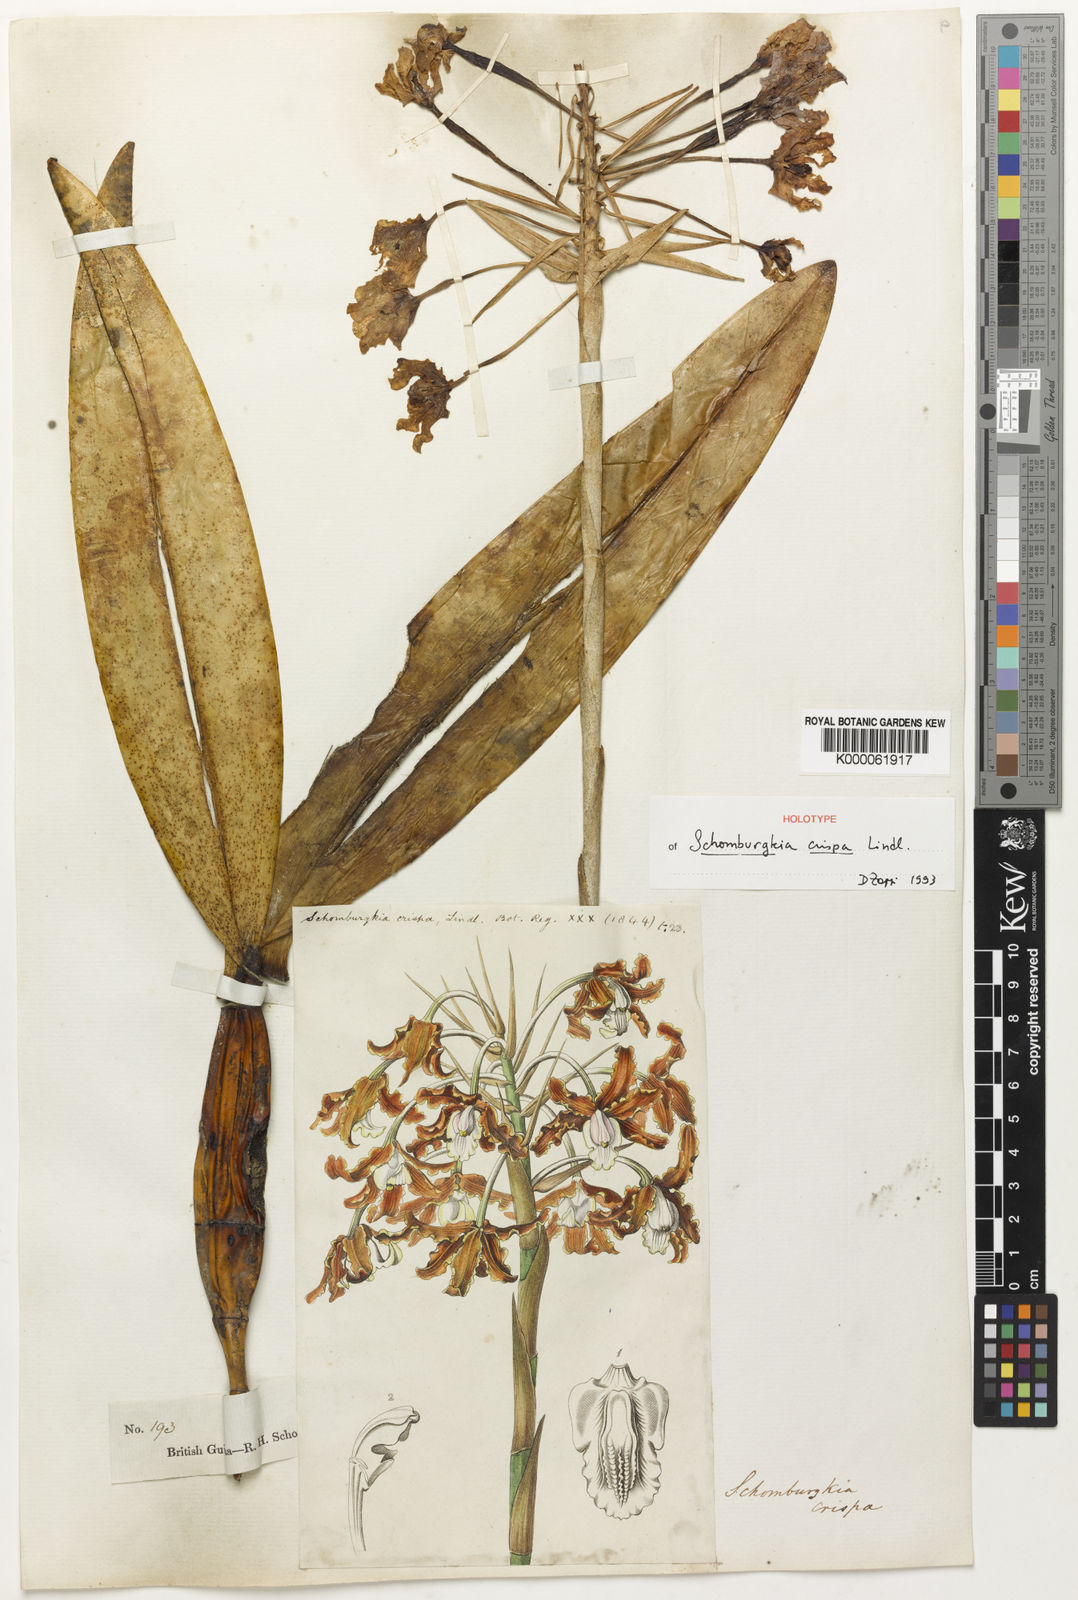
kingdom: Plantae
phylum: Tracheophyta
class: Liliopsida
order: Asparagales
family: Orchidaceae
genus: Laelia
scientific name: Laelia marginata
